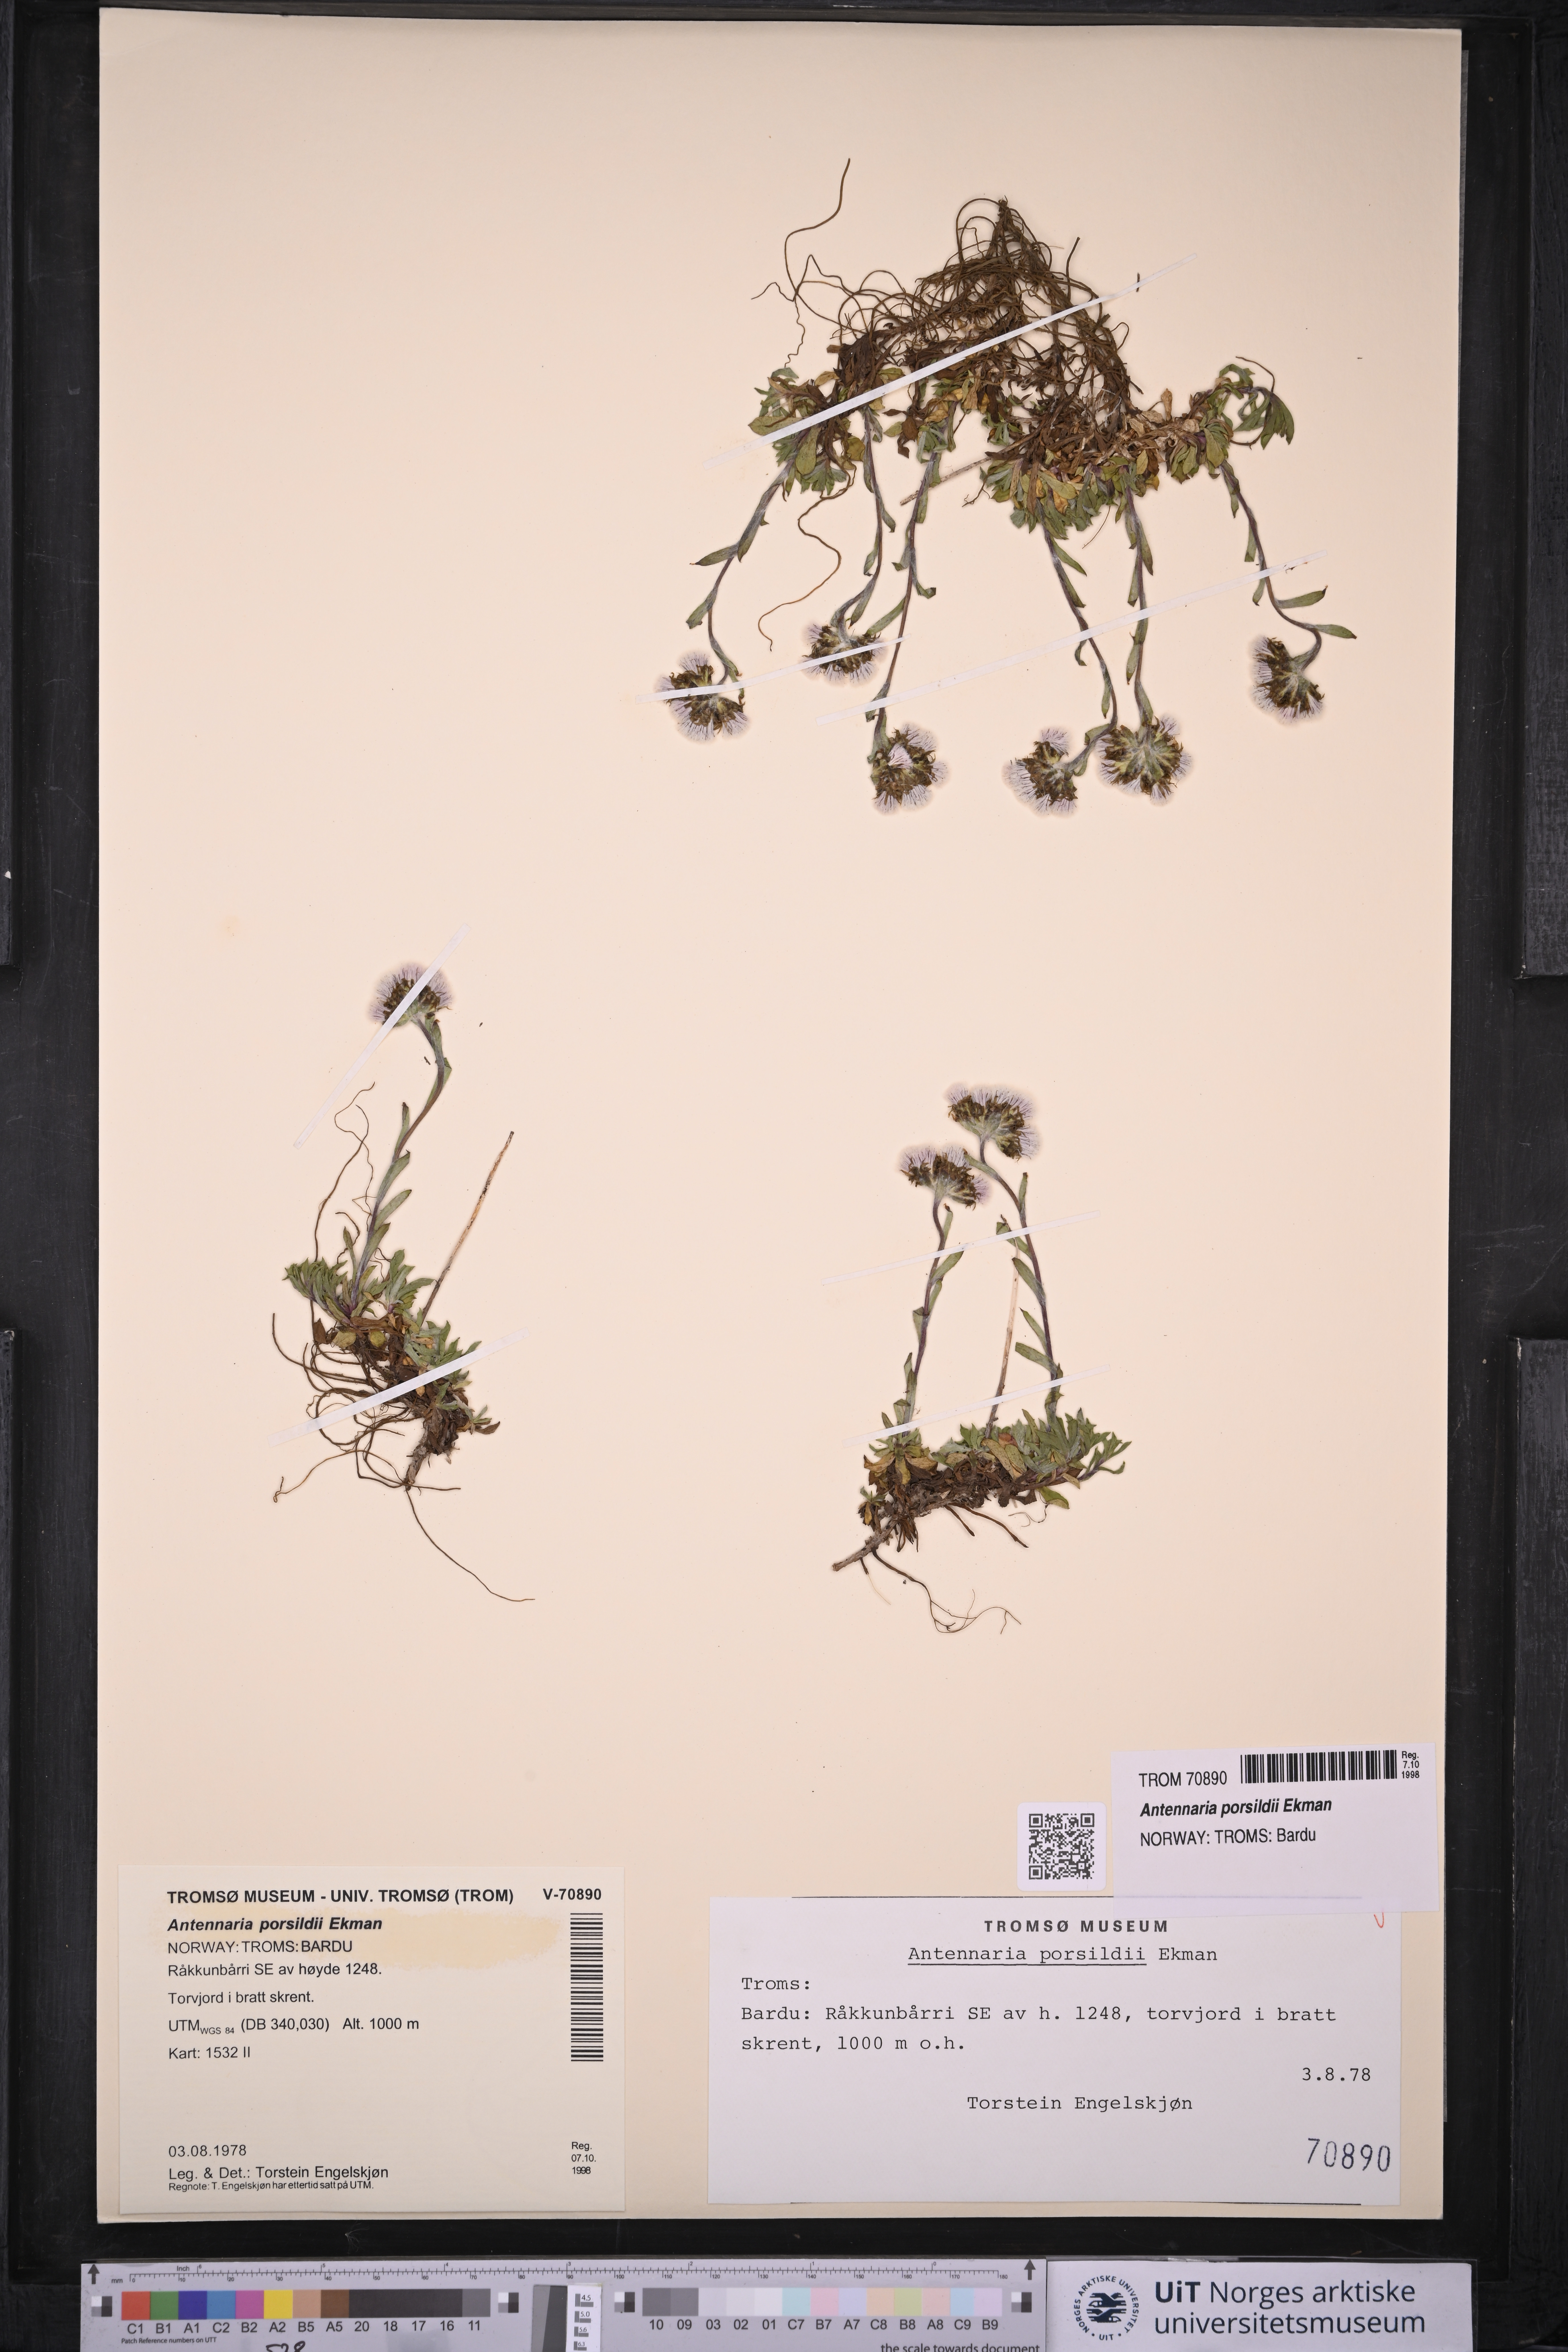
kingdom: Plantae
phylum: Tracheophyta
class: Magnoliopsida
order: Asterales
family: Asteraceae
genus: Antennaria
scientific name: Antennaria porsildii
